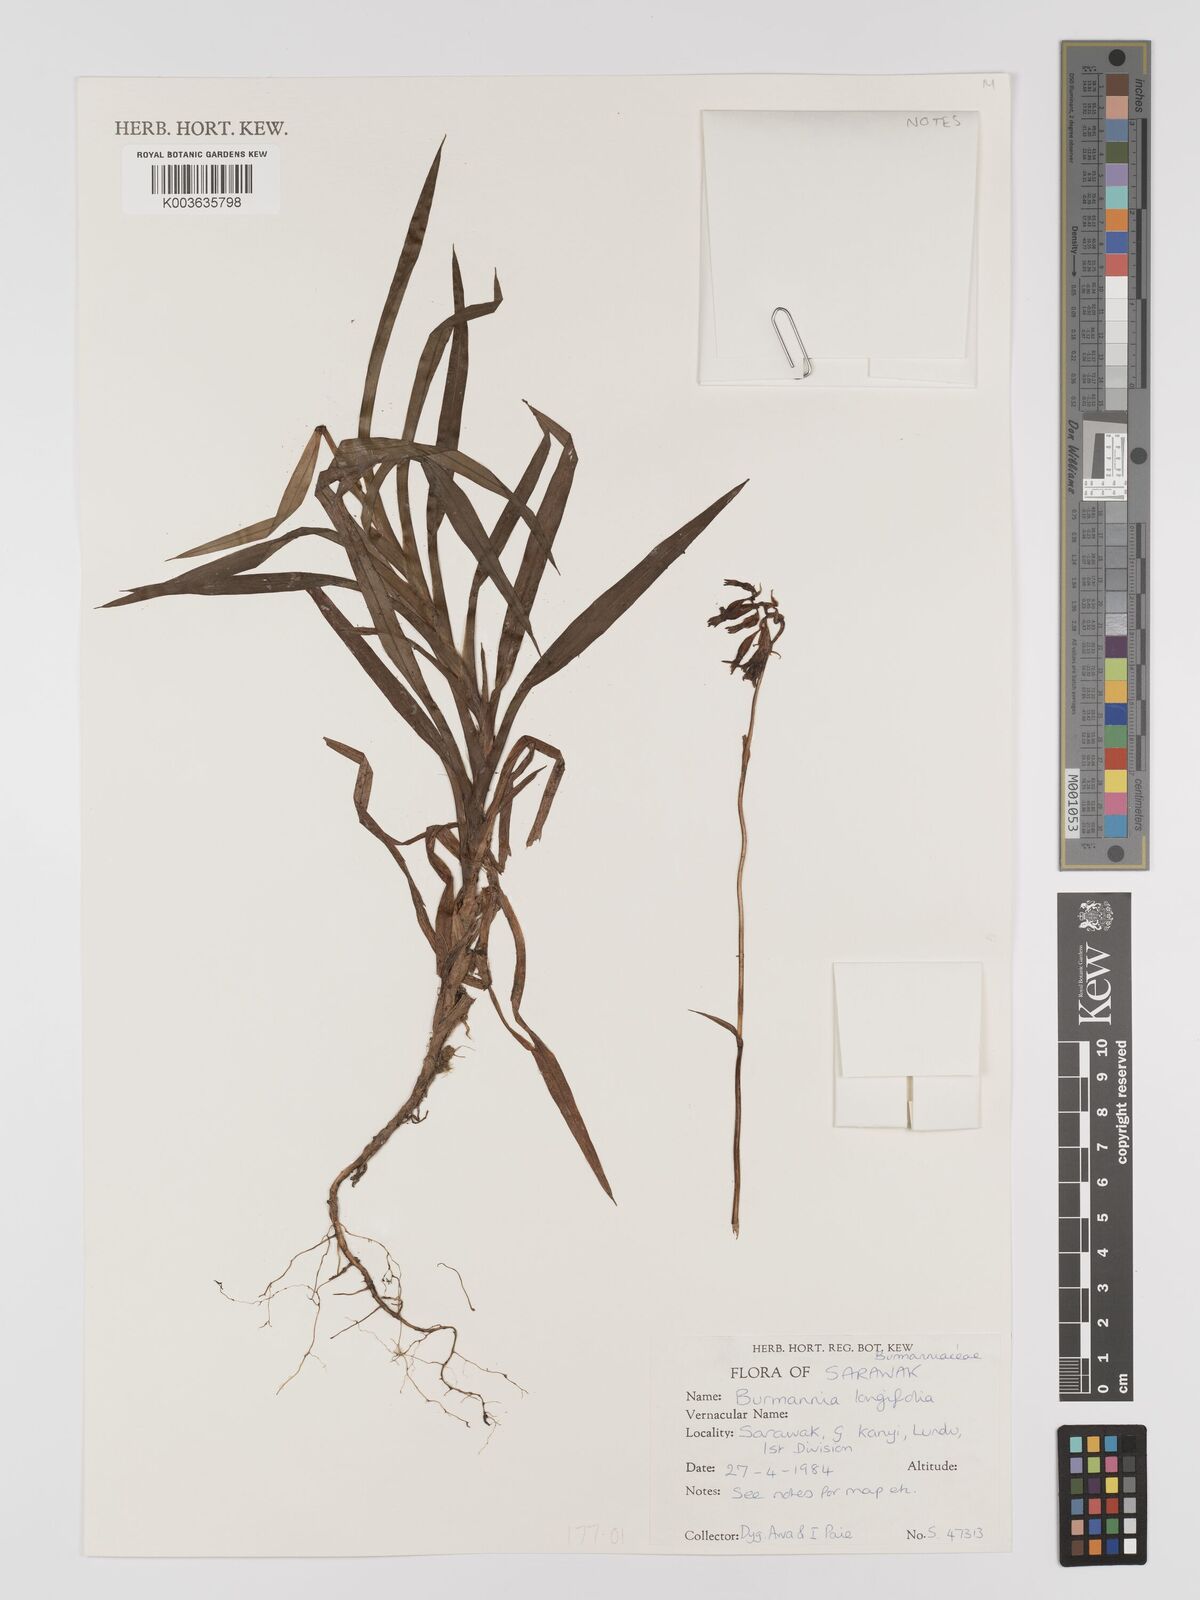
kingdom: Plantae
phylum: Tracheophyta
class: Liliopsida
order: Dioscoreales
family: Burmanniaceae
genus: Burmannia
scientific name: Burmannia longifolia
